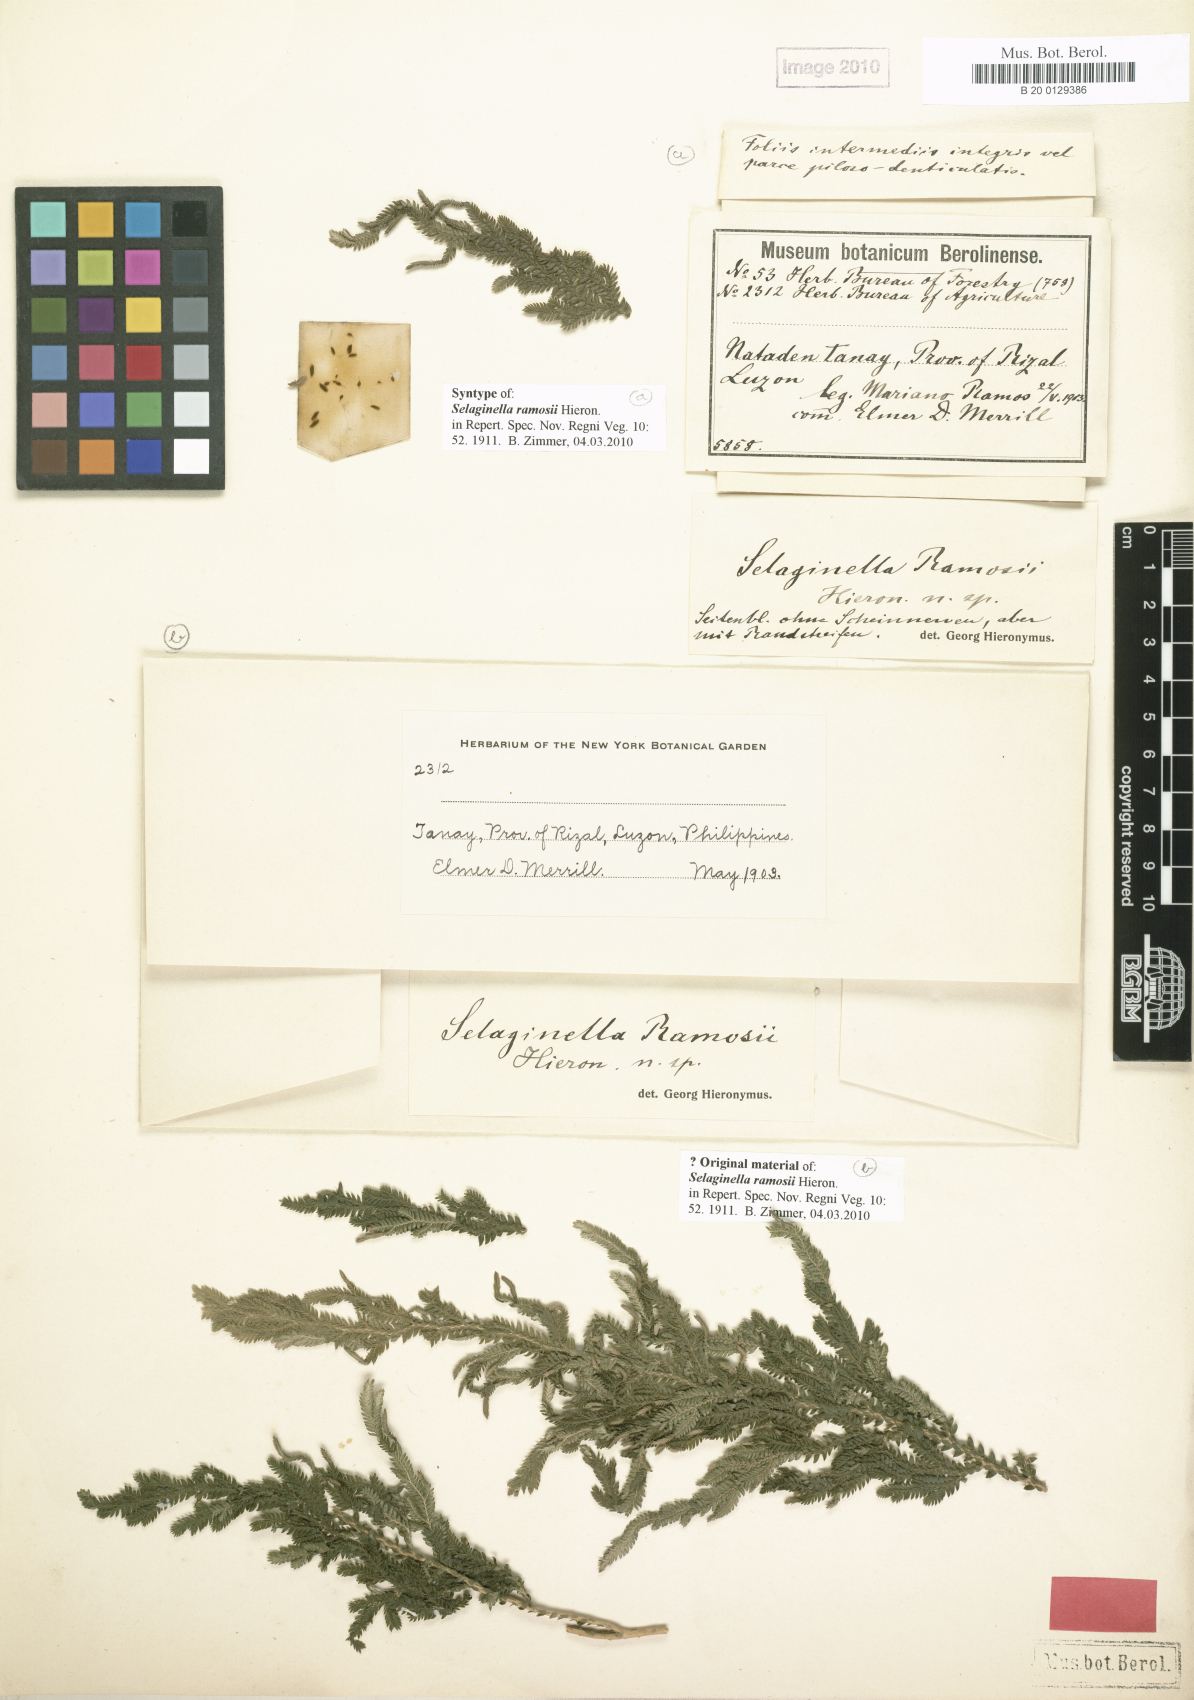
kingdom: Plantae
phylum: Tracheophyta
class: Lycopodiopsida
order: Selaginellales
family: Selaginellaceae
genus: Selaginella
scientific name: Selaginella ramosii
